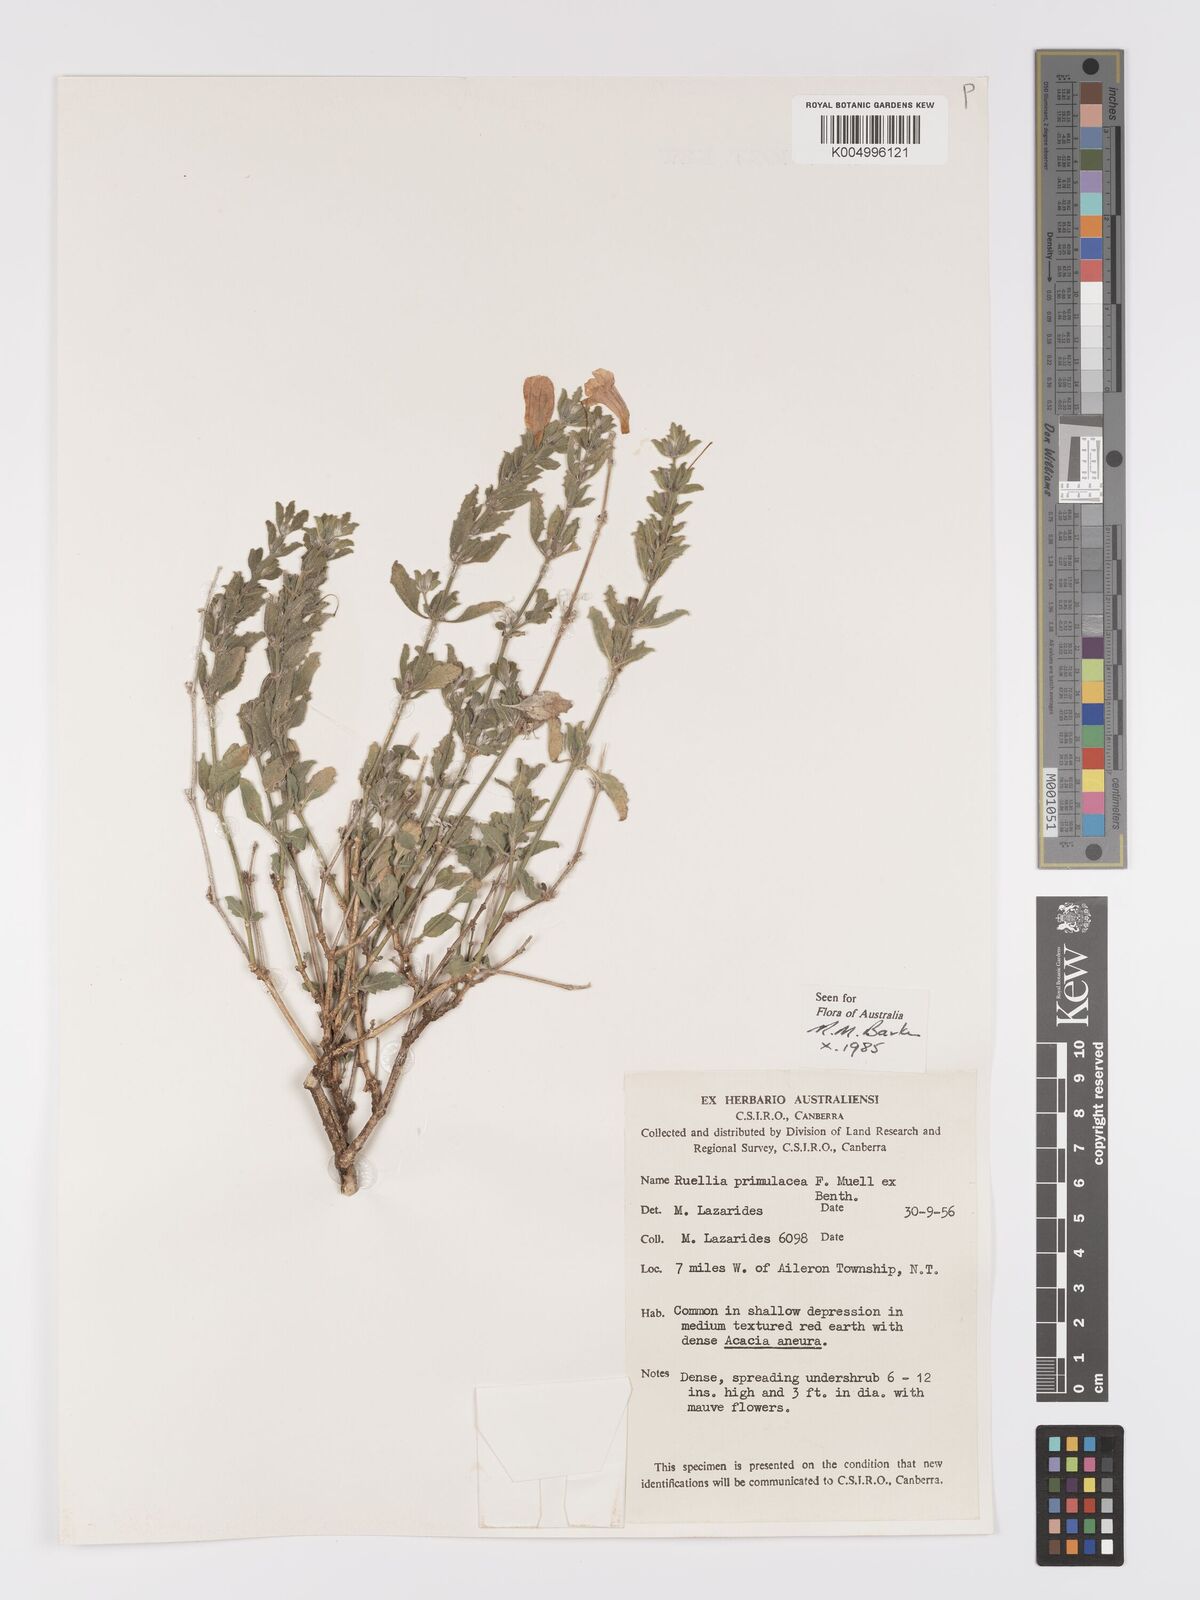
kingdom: Plantae
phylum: Tracheophyta
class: Magnoliopsida
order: Lamiales
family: Acanthaceae
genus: Ruellia
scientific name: Ruellia primulacea
